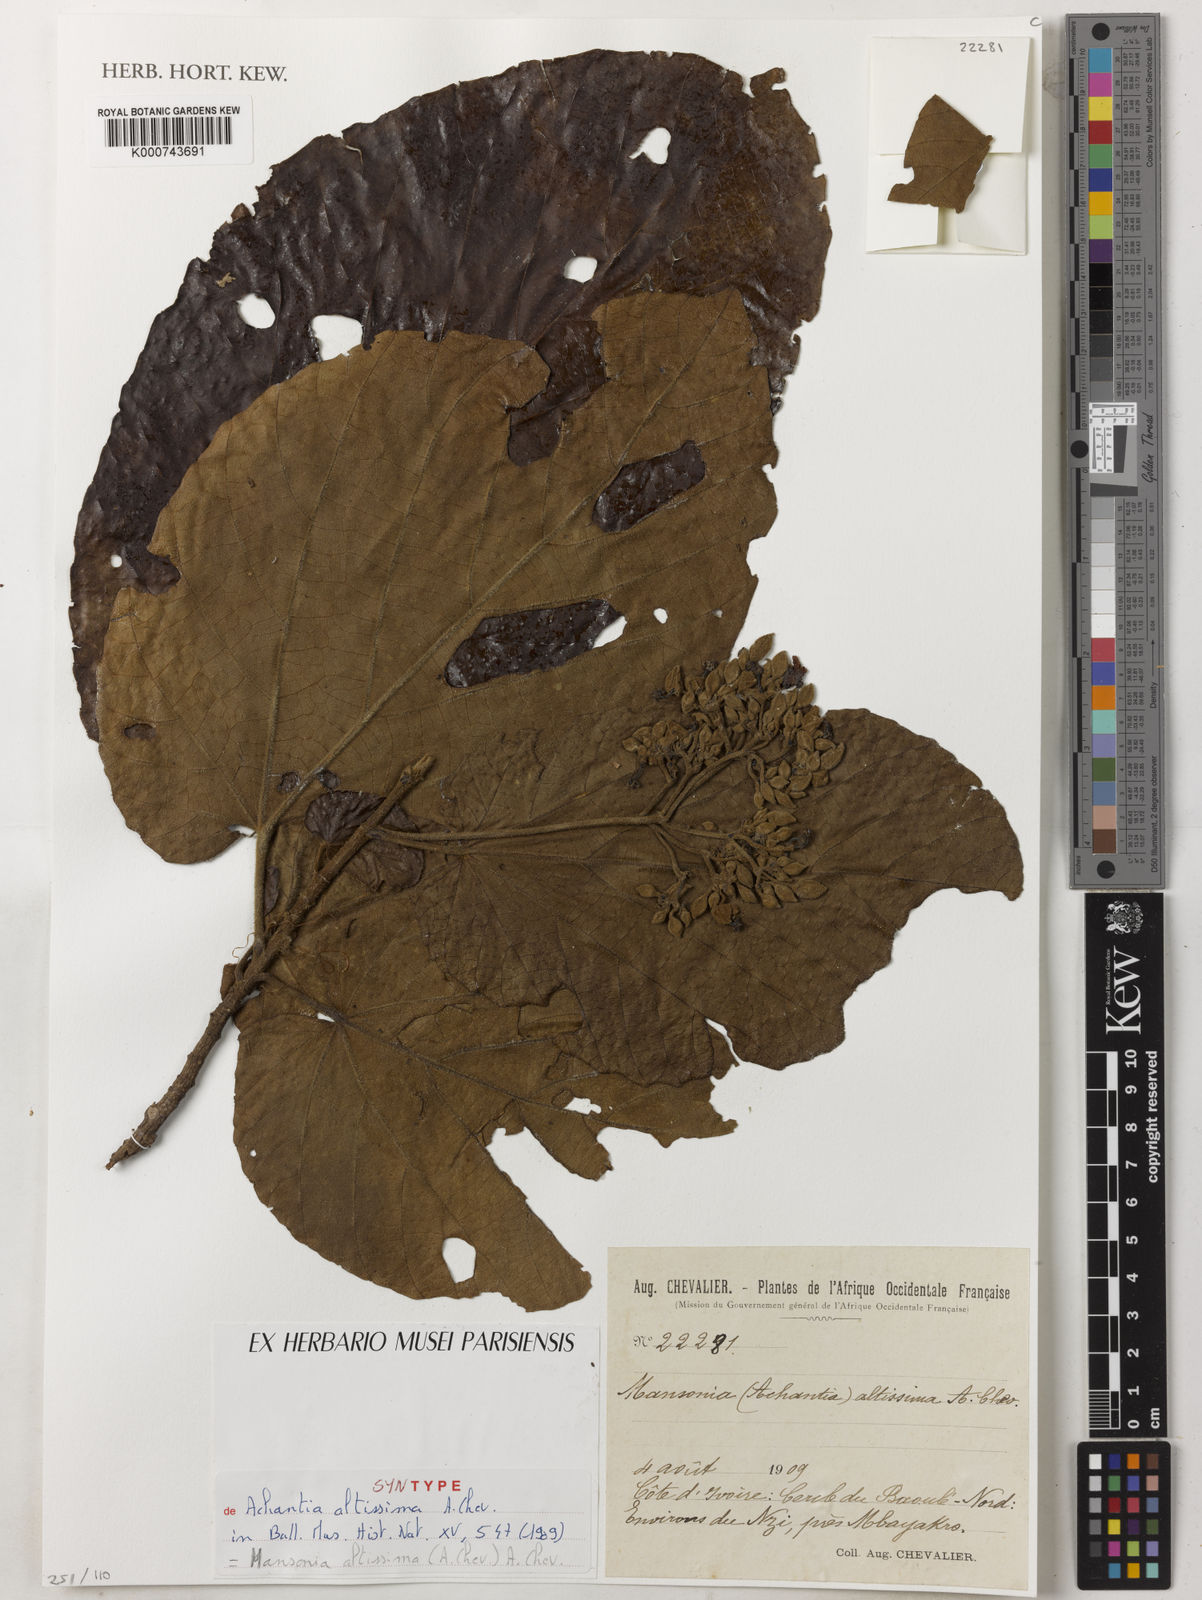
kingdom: Plantae
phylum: Tracheophyta
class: Magnoliopsida
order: Malvales
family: Malvaceae
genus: Mansonia
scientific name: Mansonia altissima
